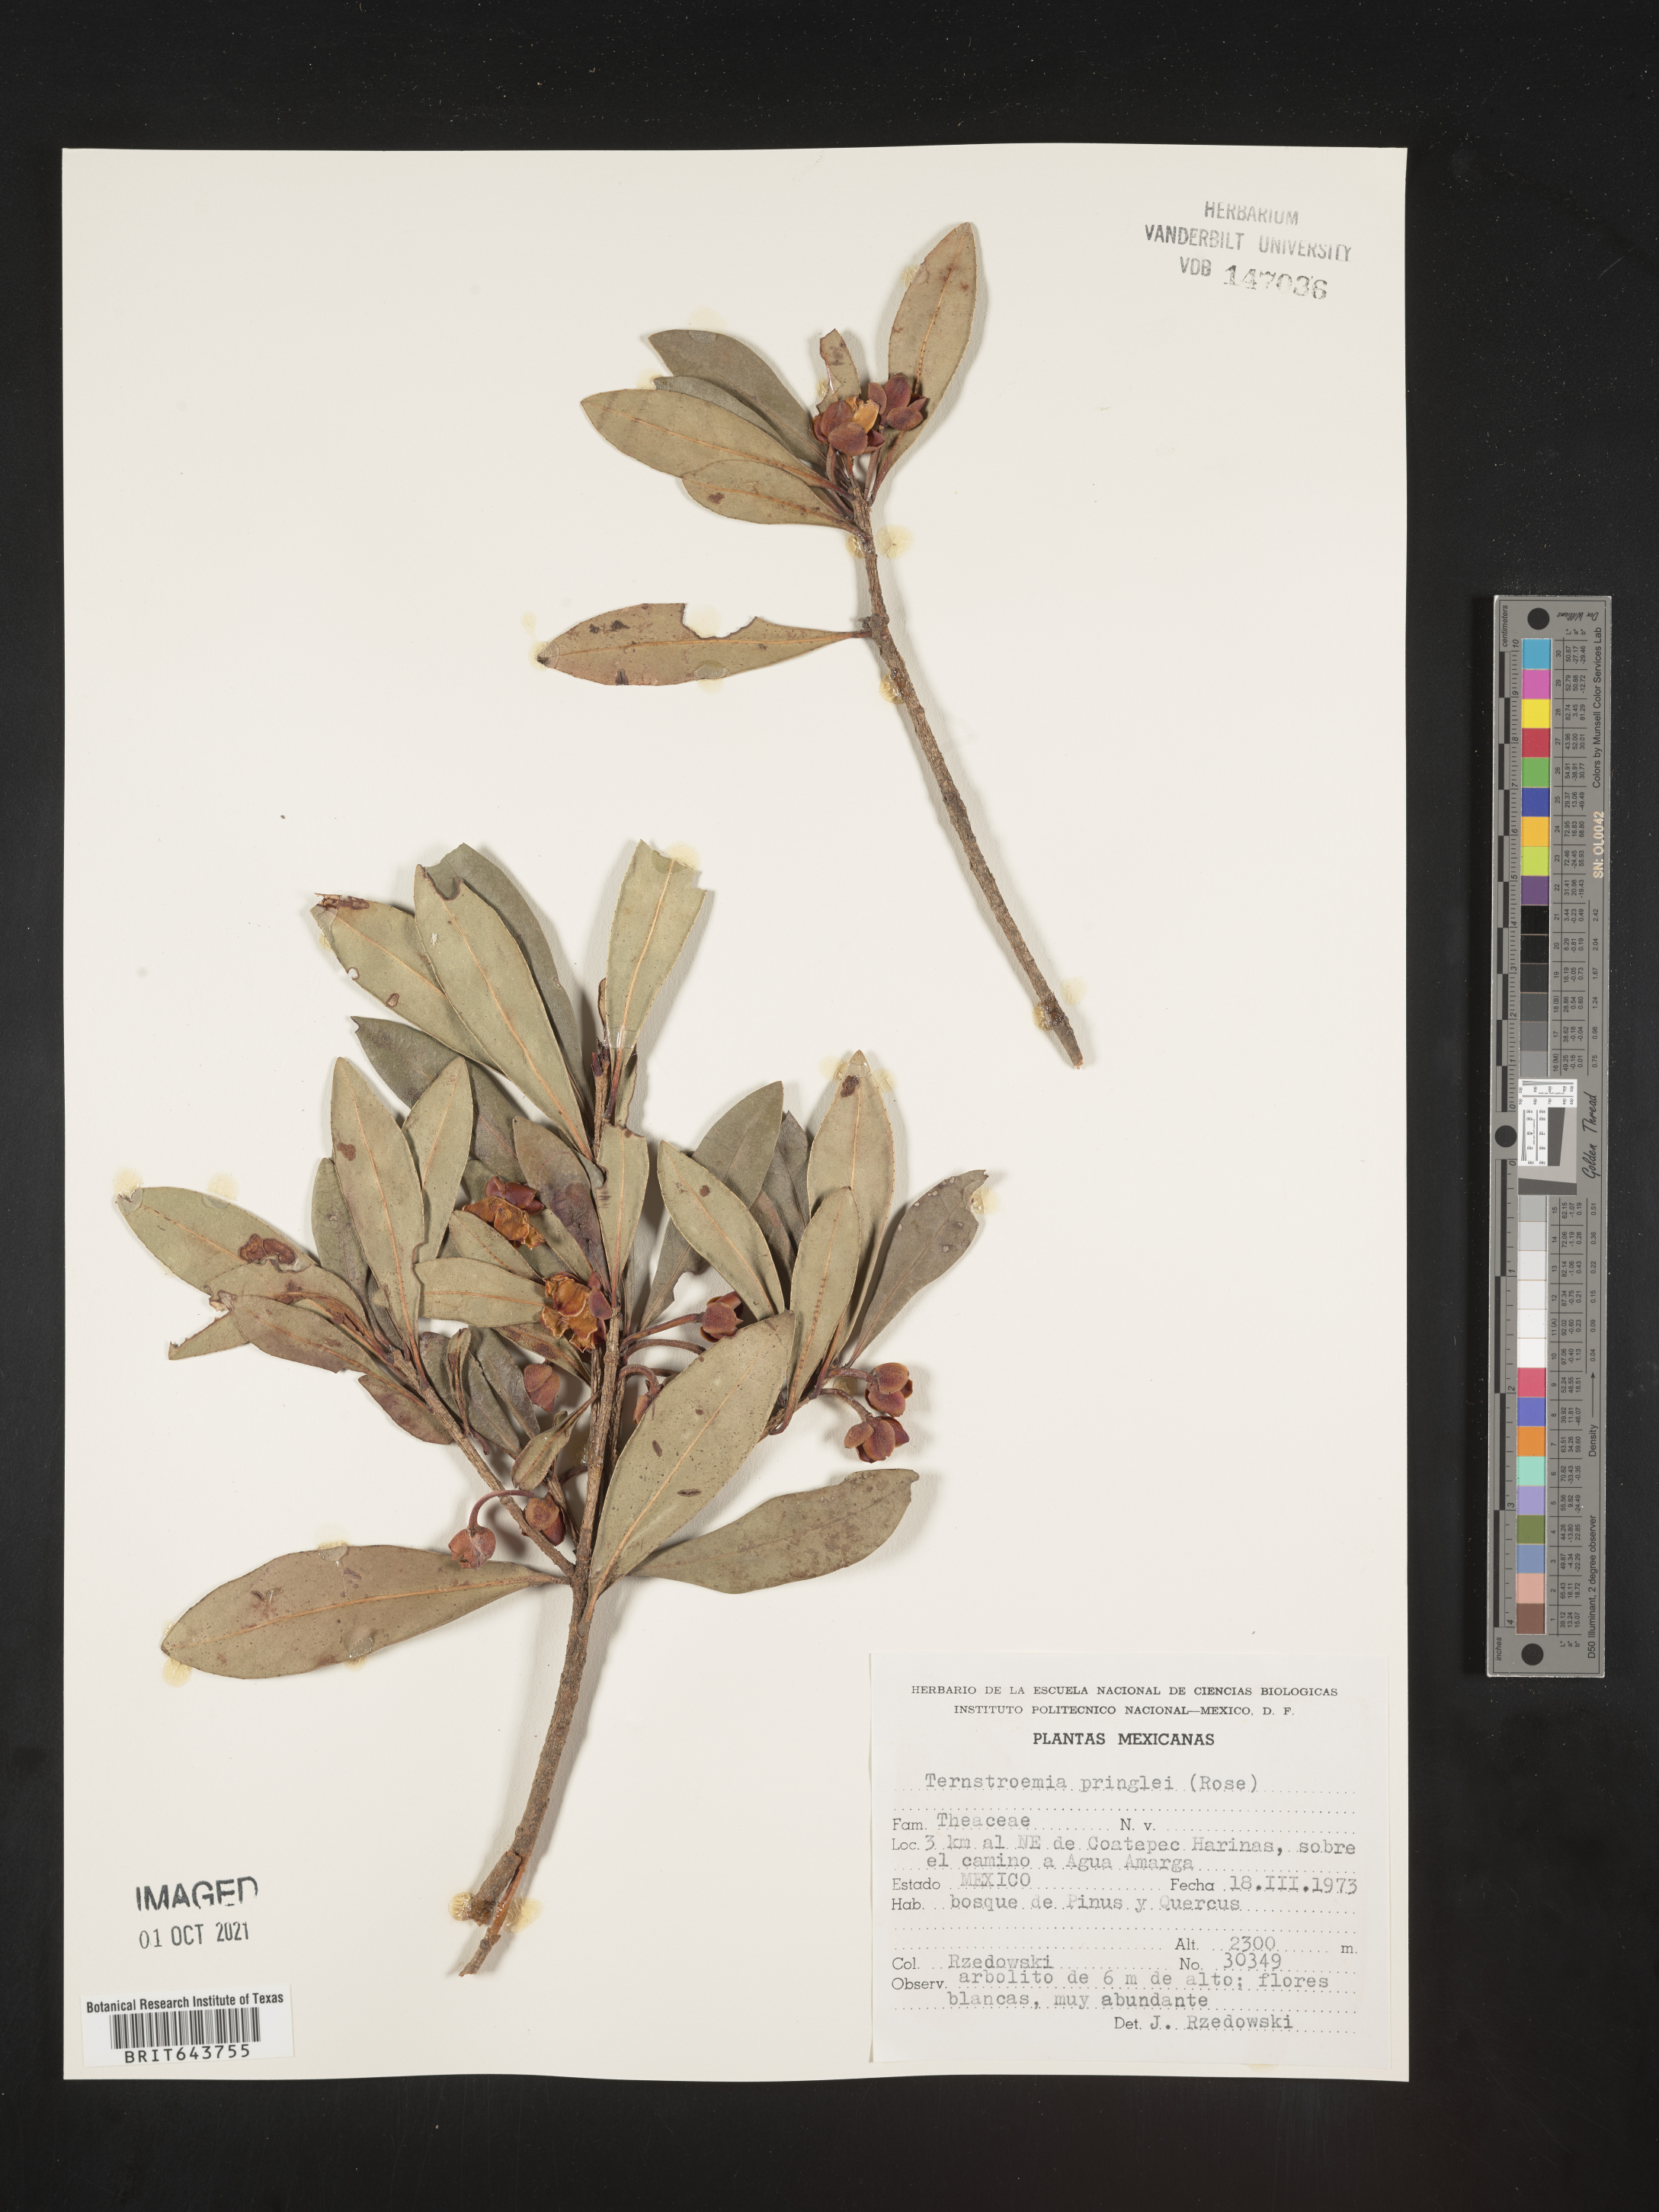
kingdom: Plantae
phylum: Tracheophyta
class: Magnoliopsida
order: Ericales
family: Pentaphylacaceae
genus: Ternstroemia
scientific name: Ternstroemia
